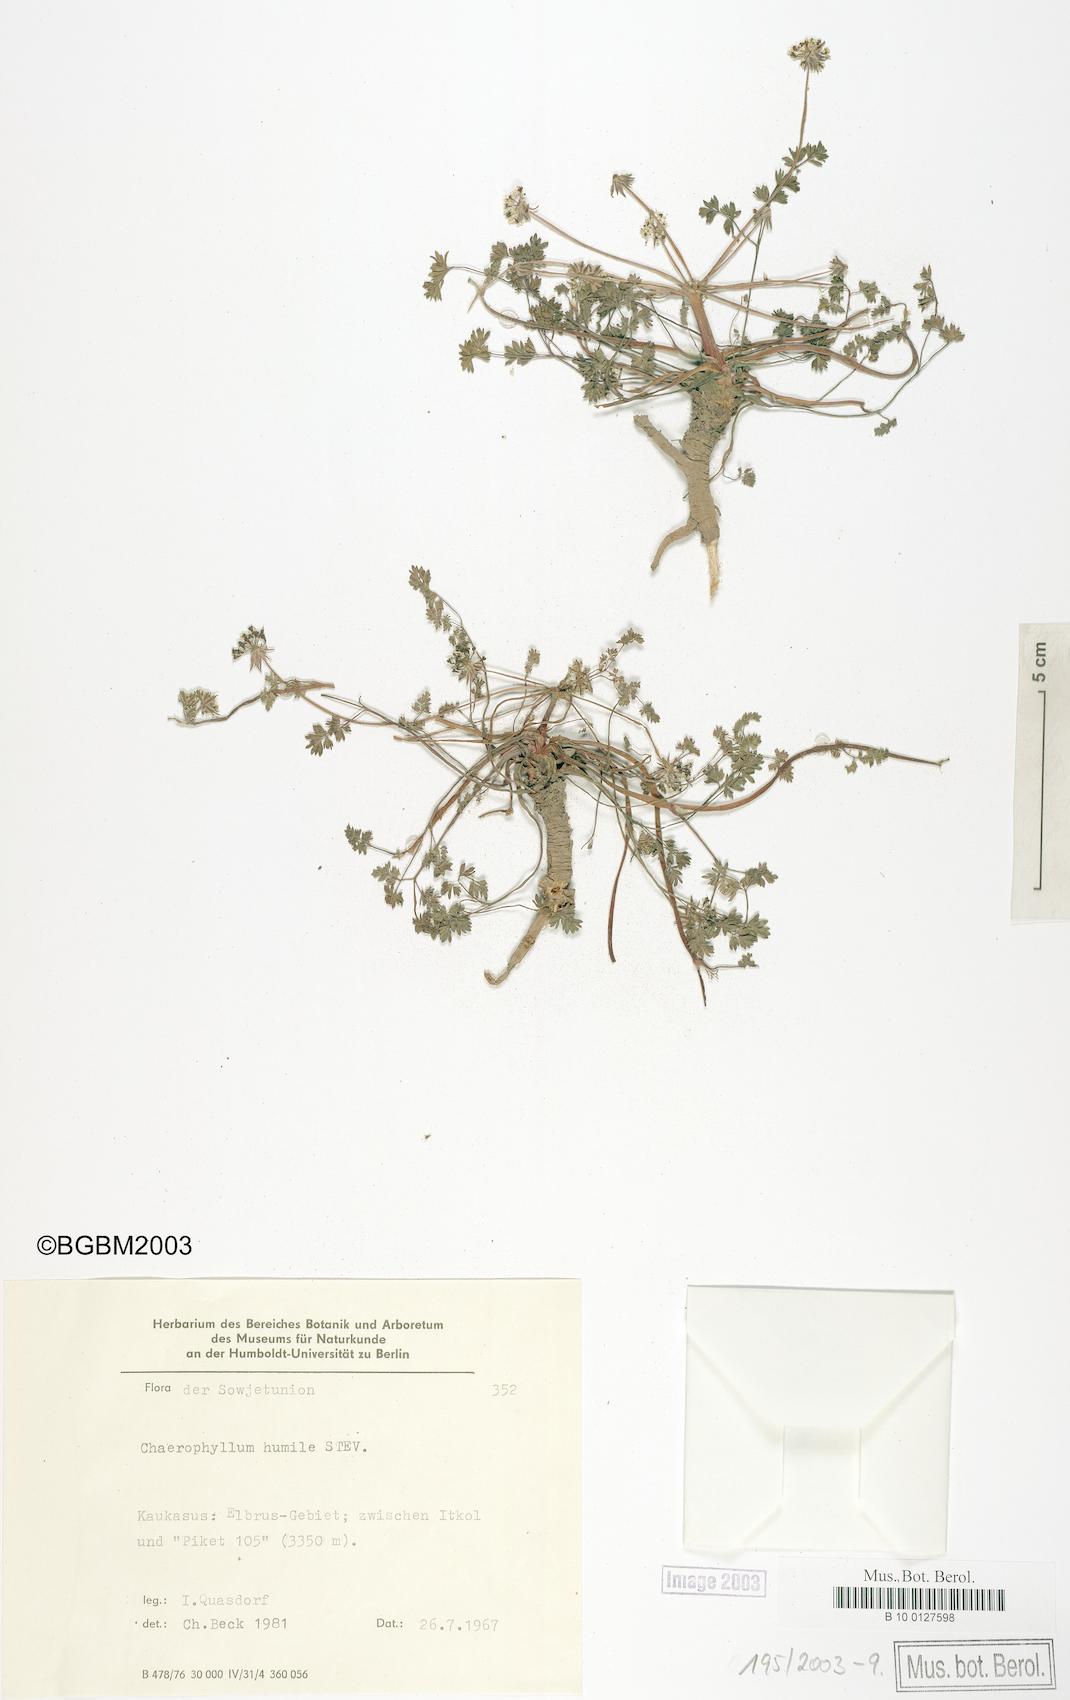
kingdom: Plantae
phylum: Tracheophyta
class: Magnoliopsida
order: Apiales
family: Apiaceae
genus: Chaerophyllum
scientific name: Chaerophyllum humile
